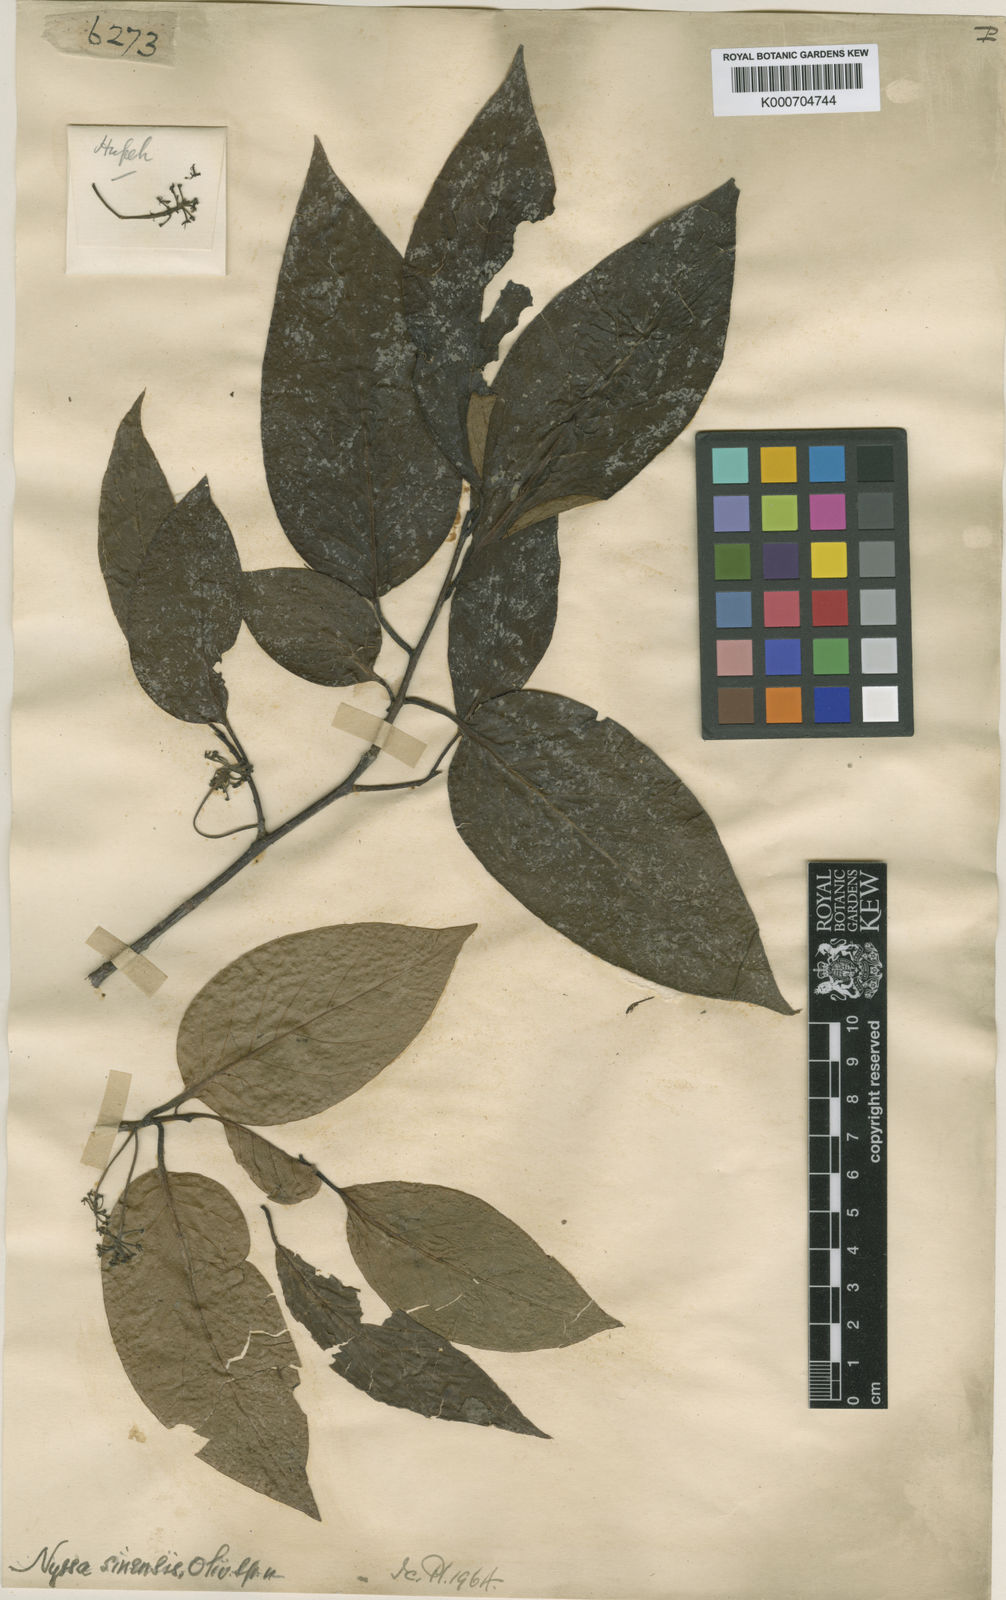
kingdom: Plantae
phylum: Tracheophyta
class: Magnoliopsida
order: Cornales
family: Nyssaceae
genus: Nyssa
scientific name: Nyssa sinensis
